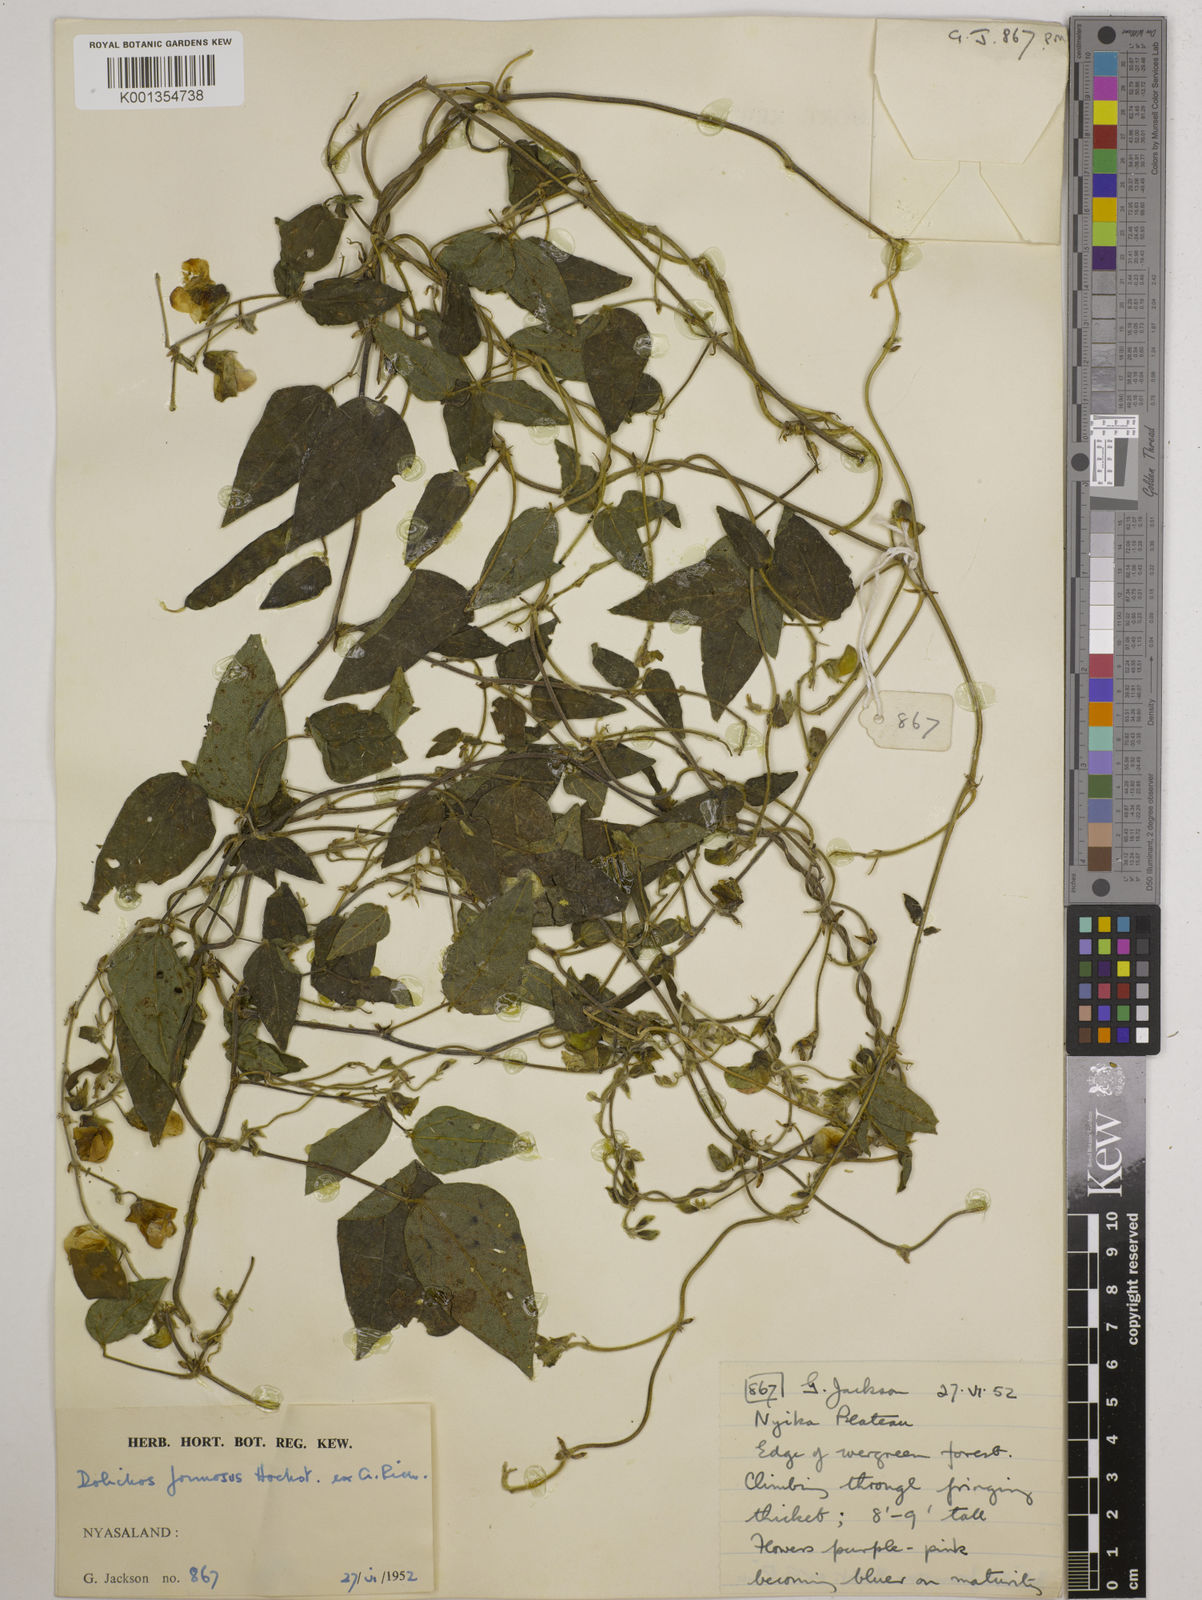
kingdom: Plantae
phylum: Tracheophyta
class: Magnoliopsida
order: Fabales
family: Fabaceae
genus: Dolichos
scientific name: Dolichos
